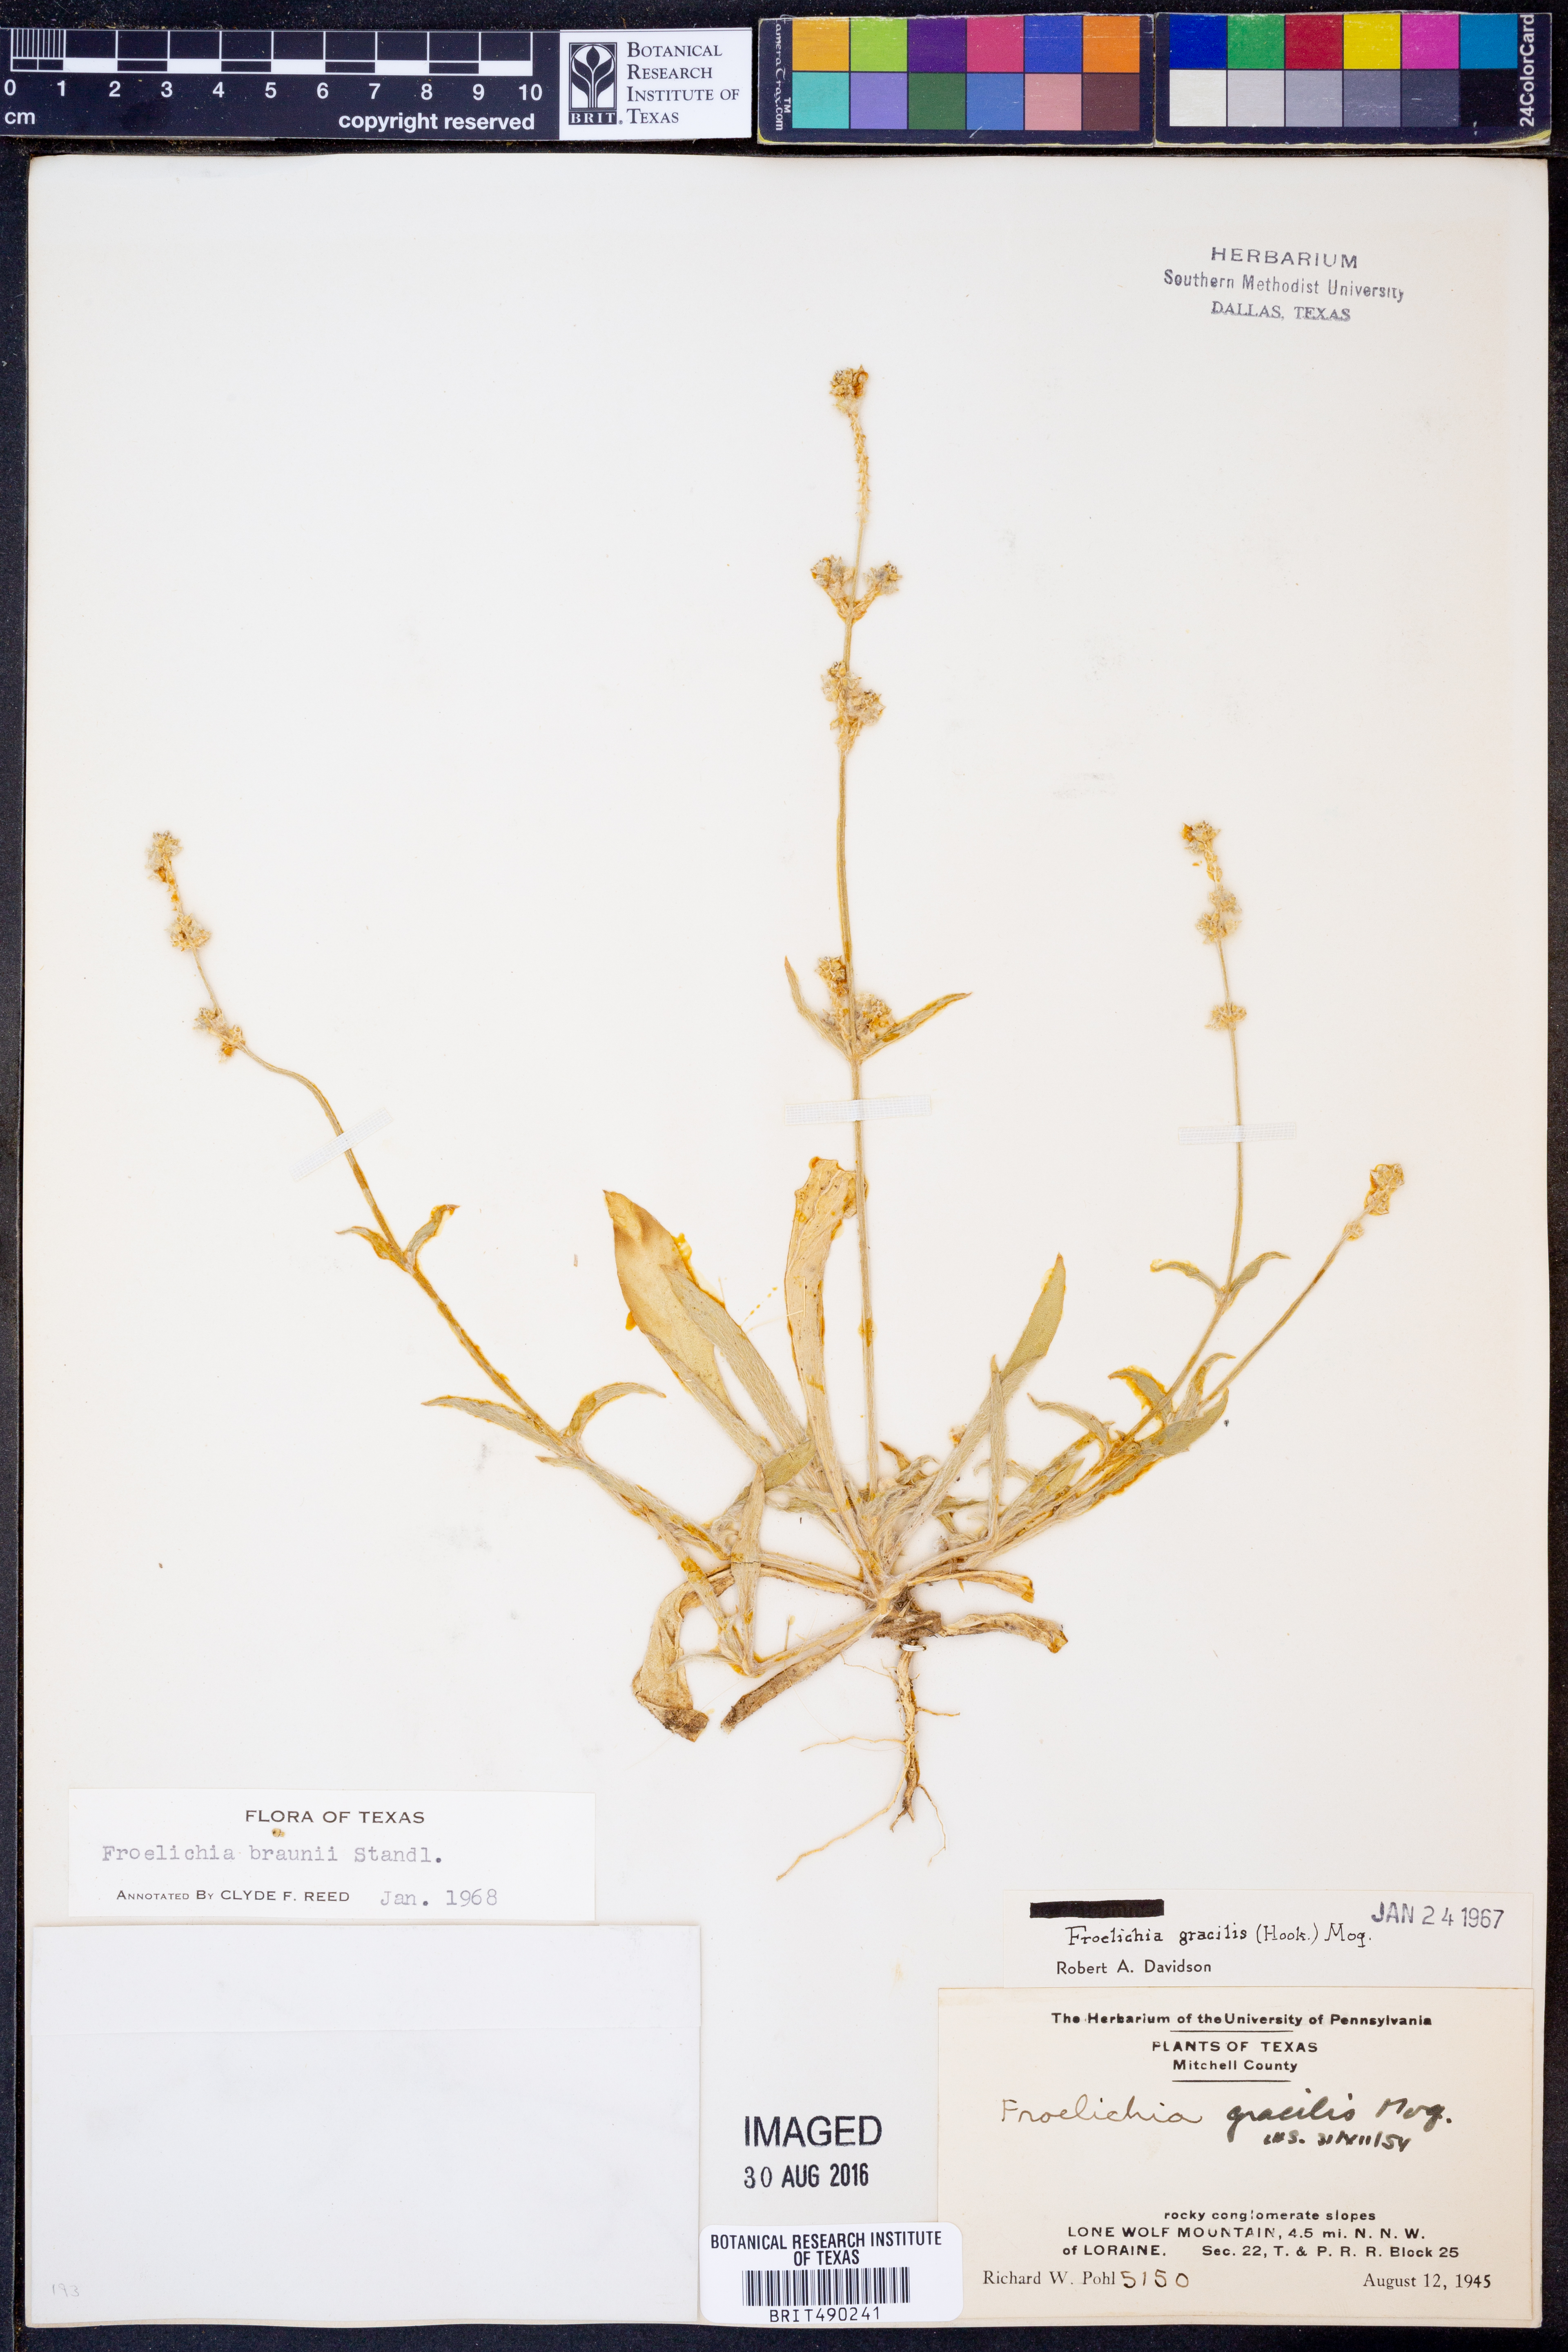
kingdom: Plantae
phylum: Tracheophyta
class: Magnoliopsida
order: Caryophyllales
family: Amaranthaceae
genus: Froelichia
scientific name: Froelichia gracilis
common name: Slender cottonweed
